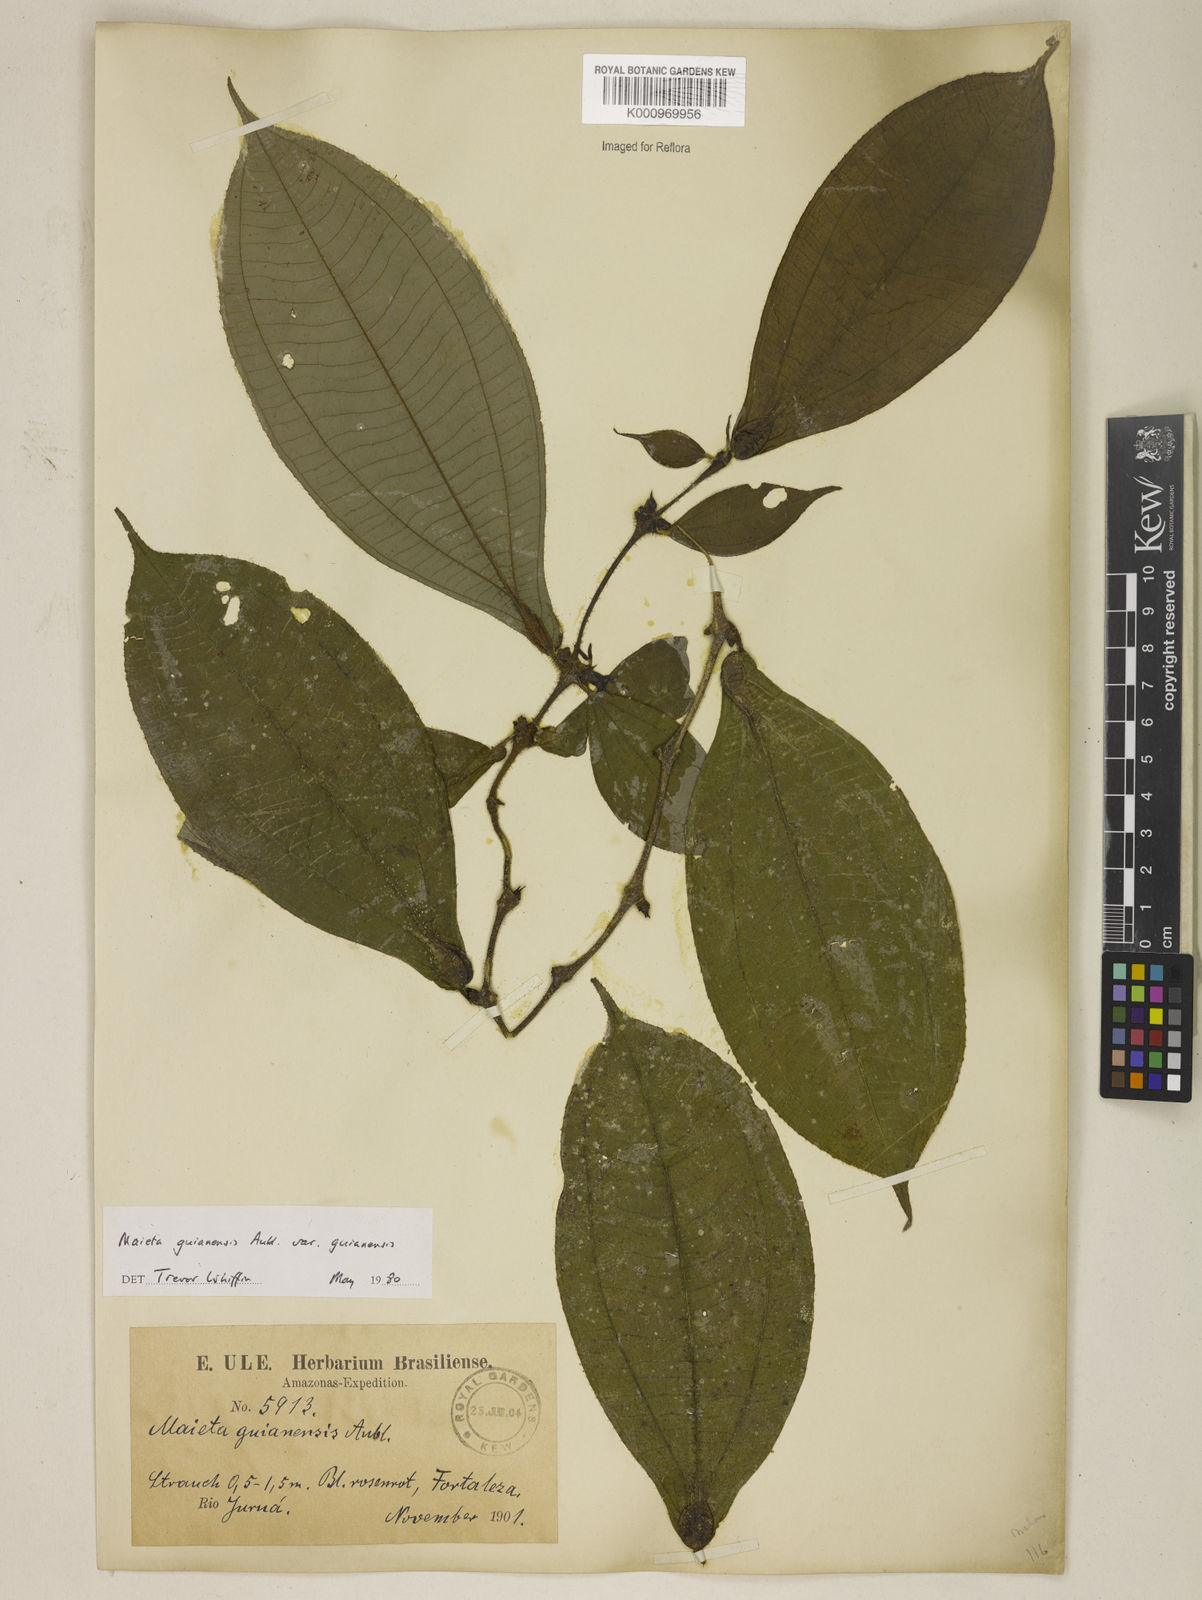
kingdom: Plantae
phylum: Tracheophyta
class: Magnoliopsida
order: Myrtales
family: Melastomataceae
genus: Miconia
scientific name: Miconia mayeta
